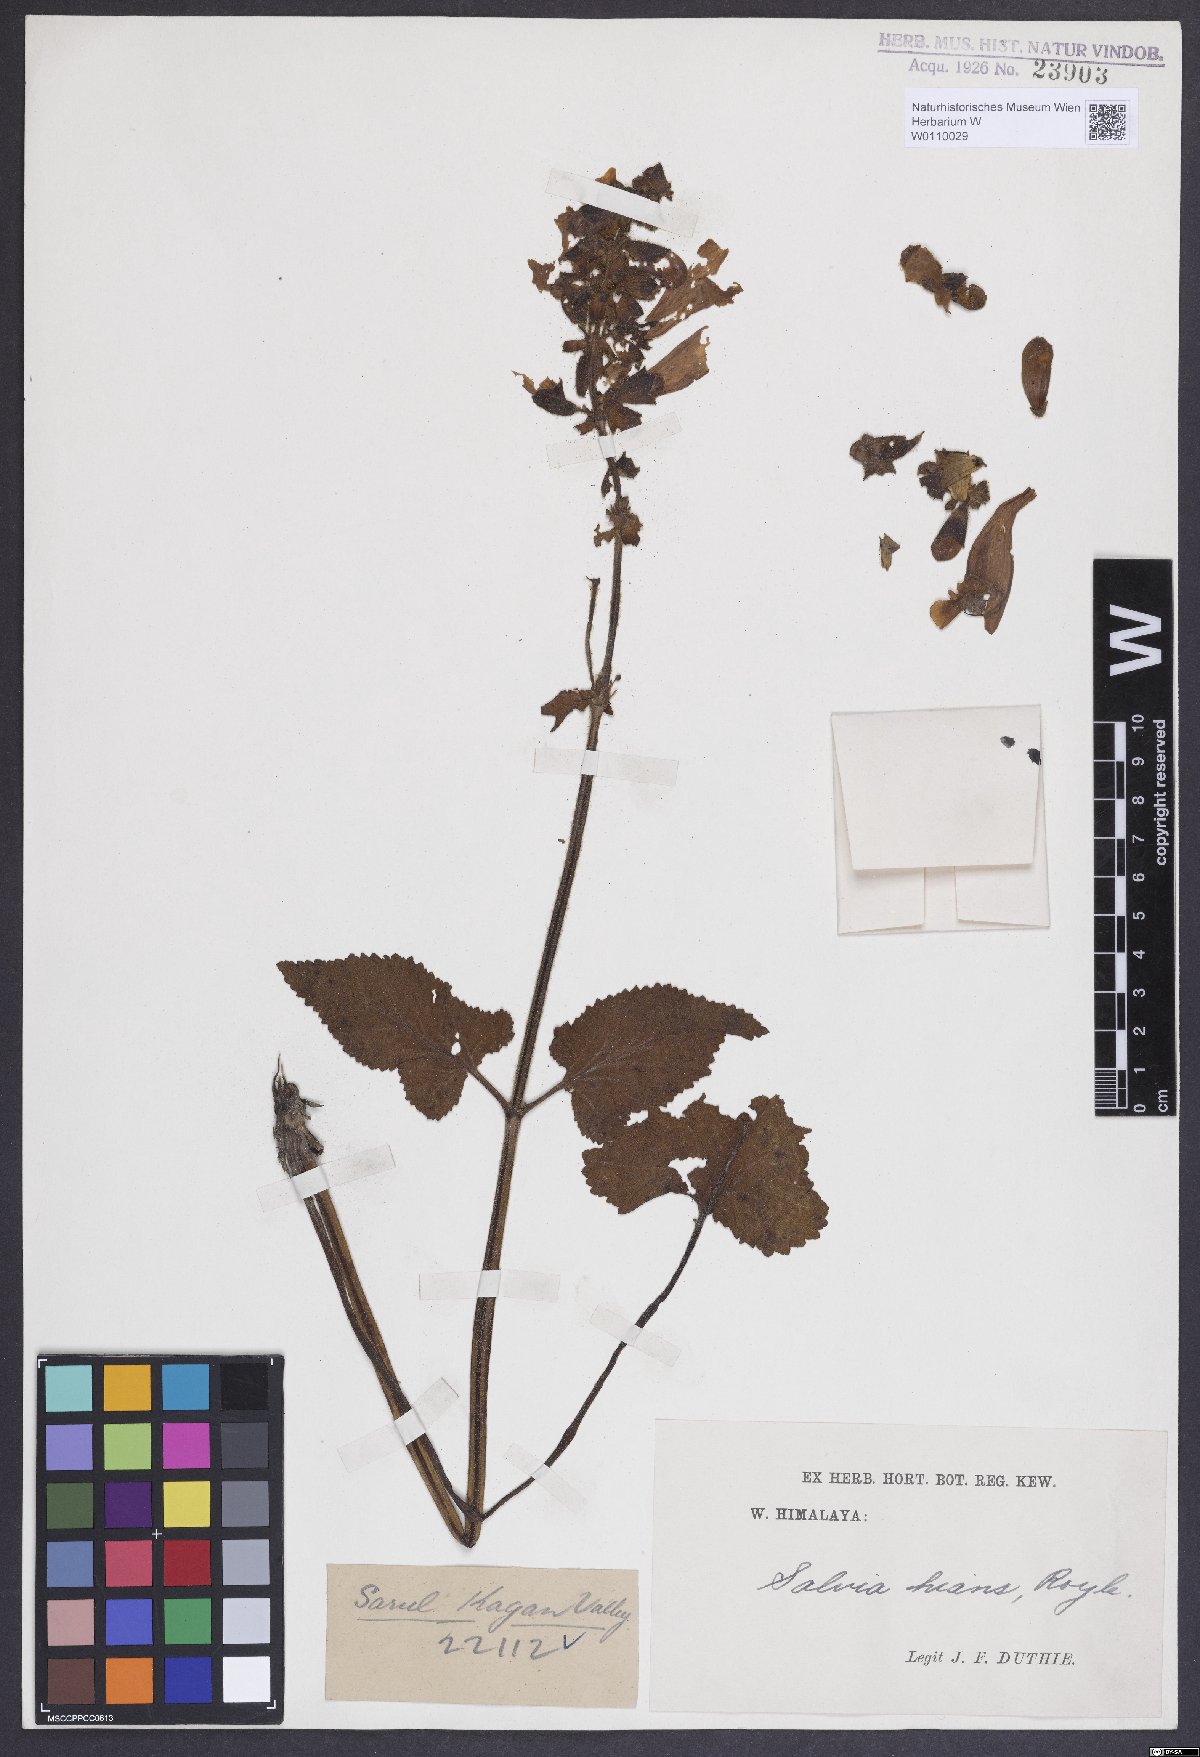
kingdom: Plantae
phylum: Tracheophyta
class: Magnoliopsida
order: Lamiales
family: Lamiaceae
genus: Salvia
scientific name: Salvia hians
